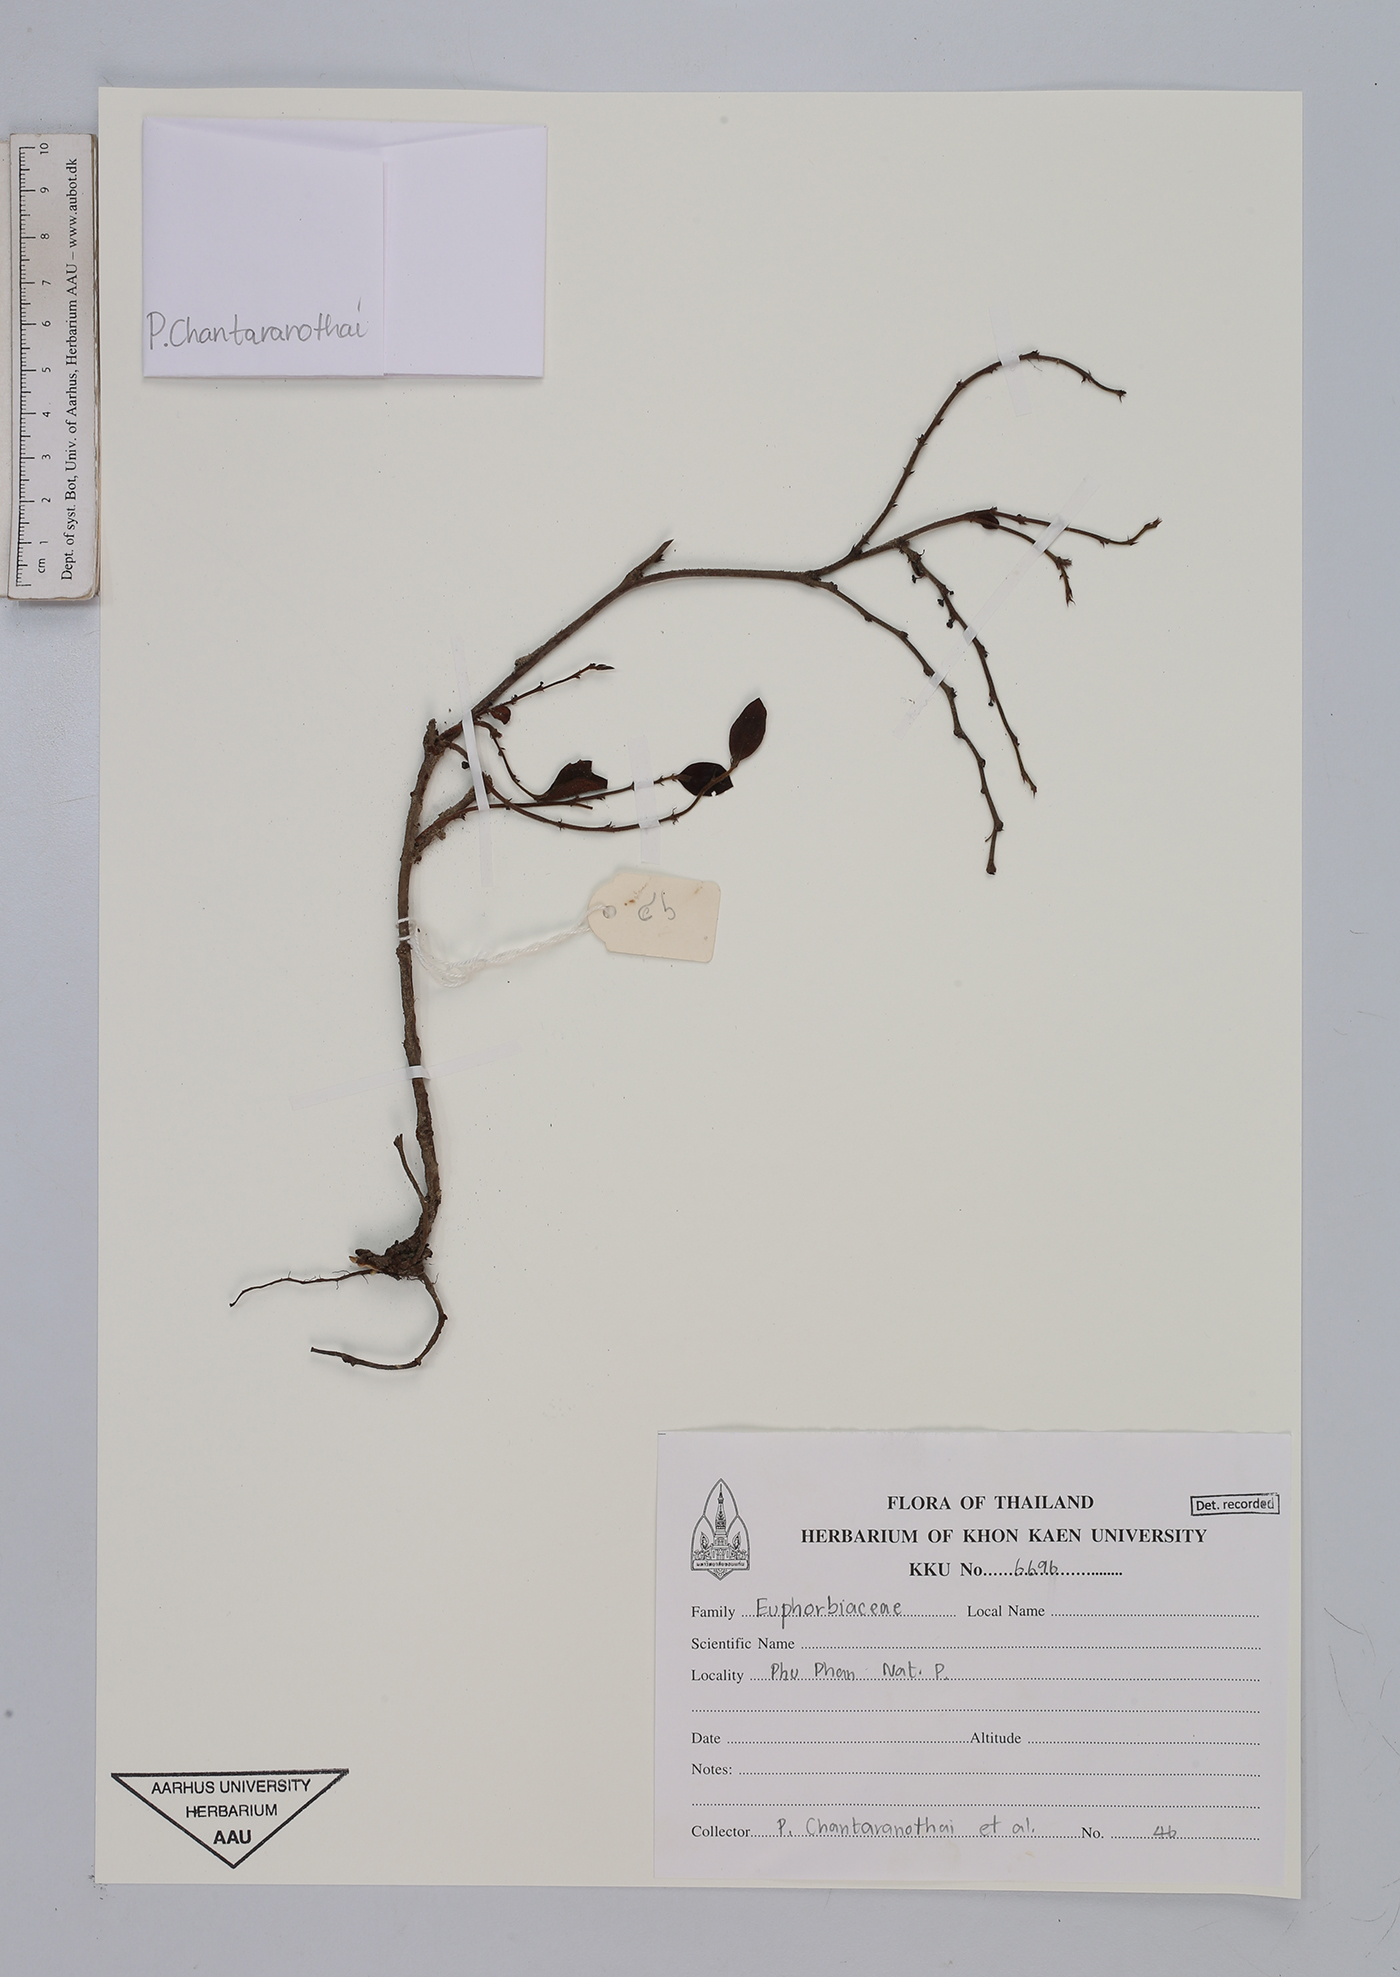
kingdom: Plantae
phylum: Tracheophyta
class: Magnoliopsida
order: Malpighiales
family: Euphorbiaceae
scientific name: Euphorbiaceae
